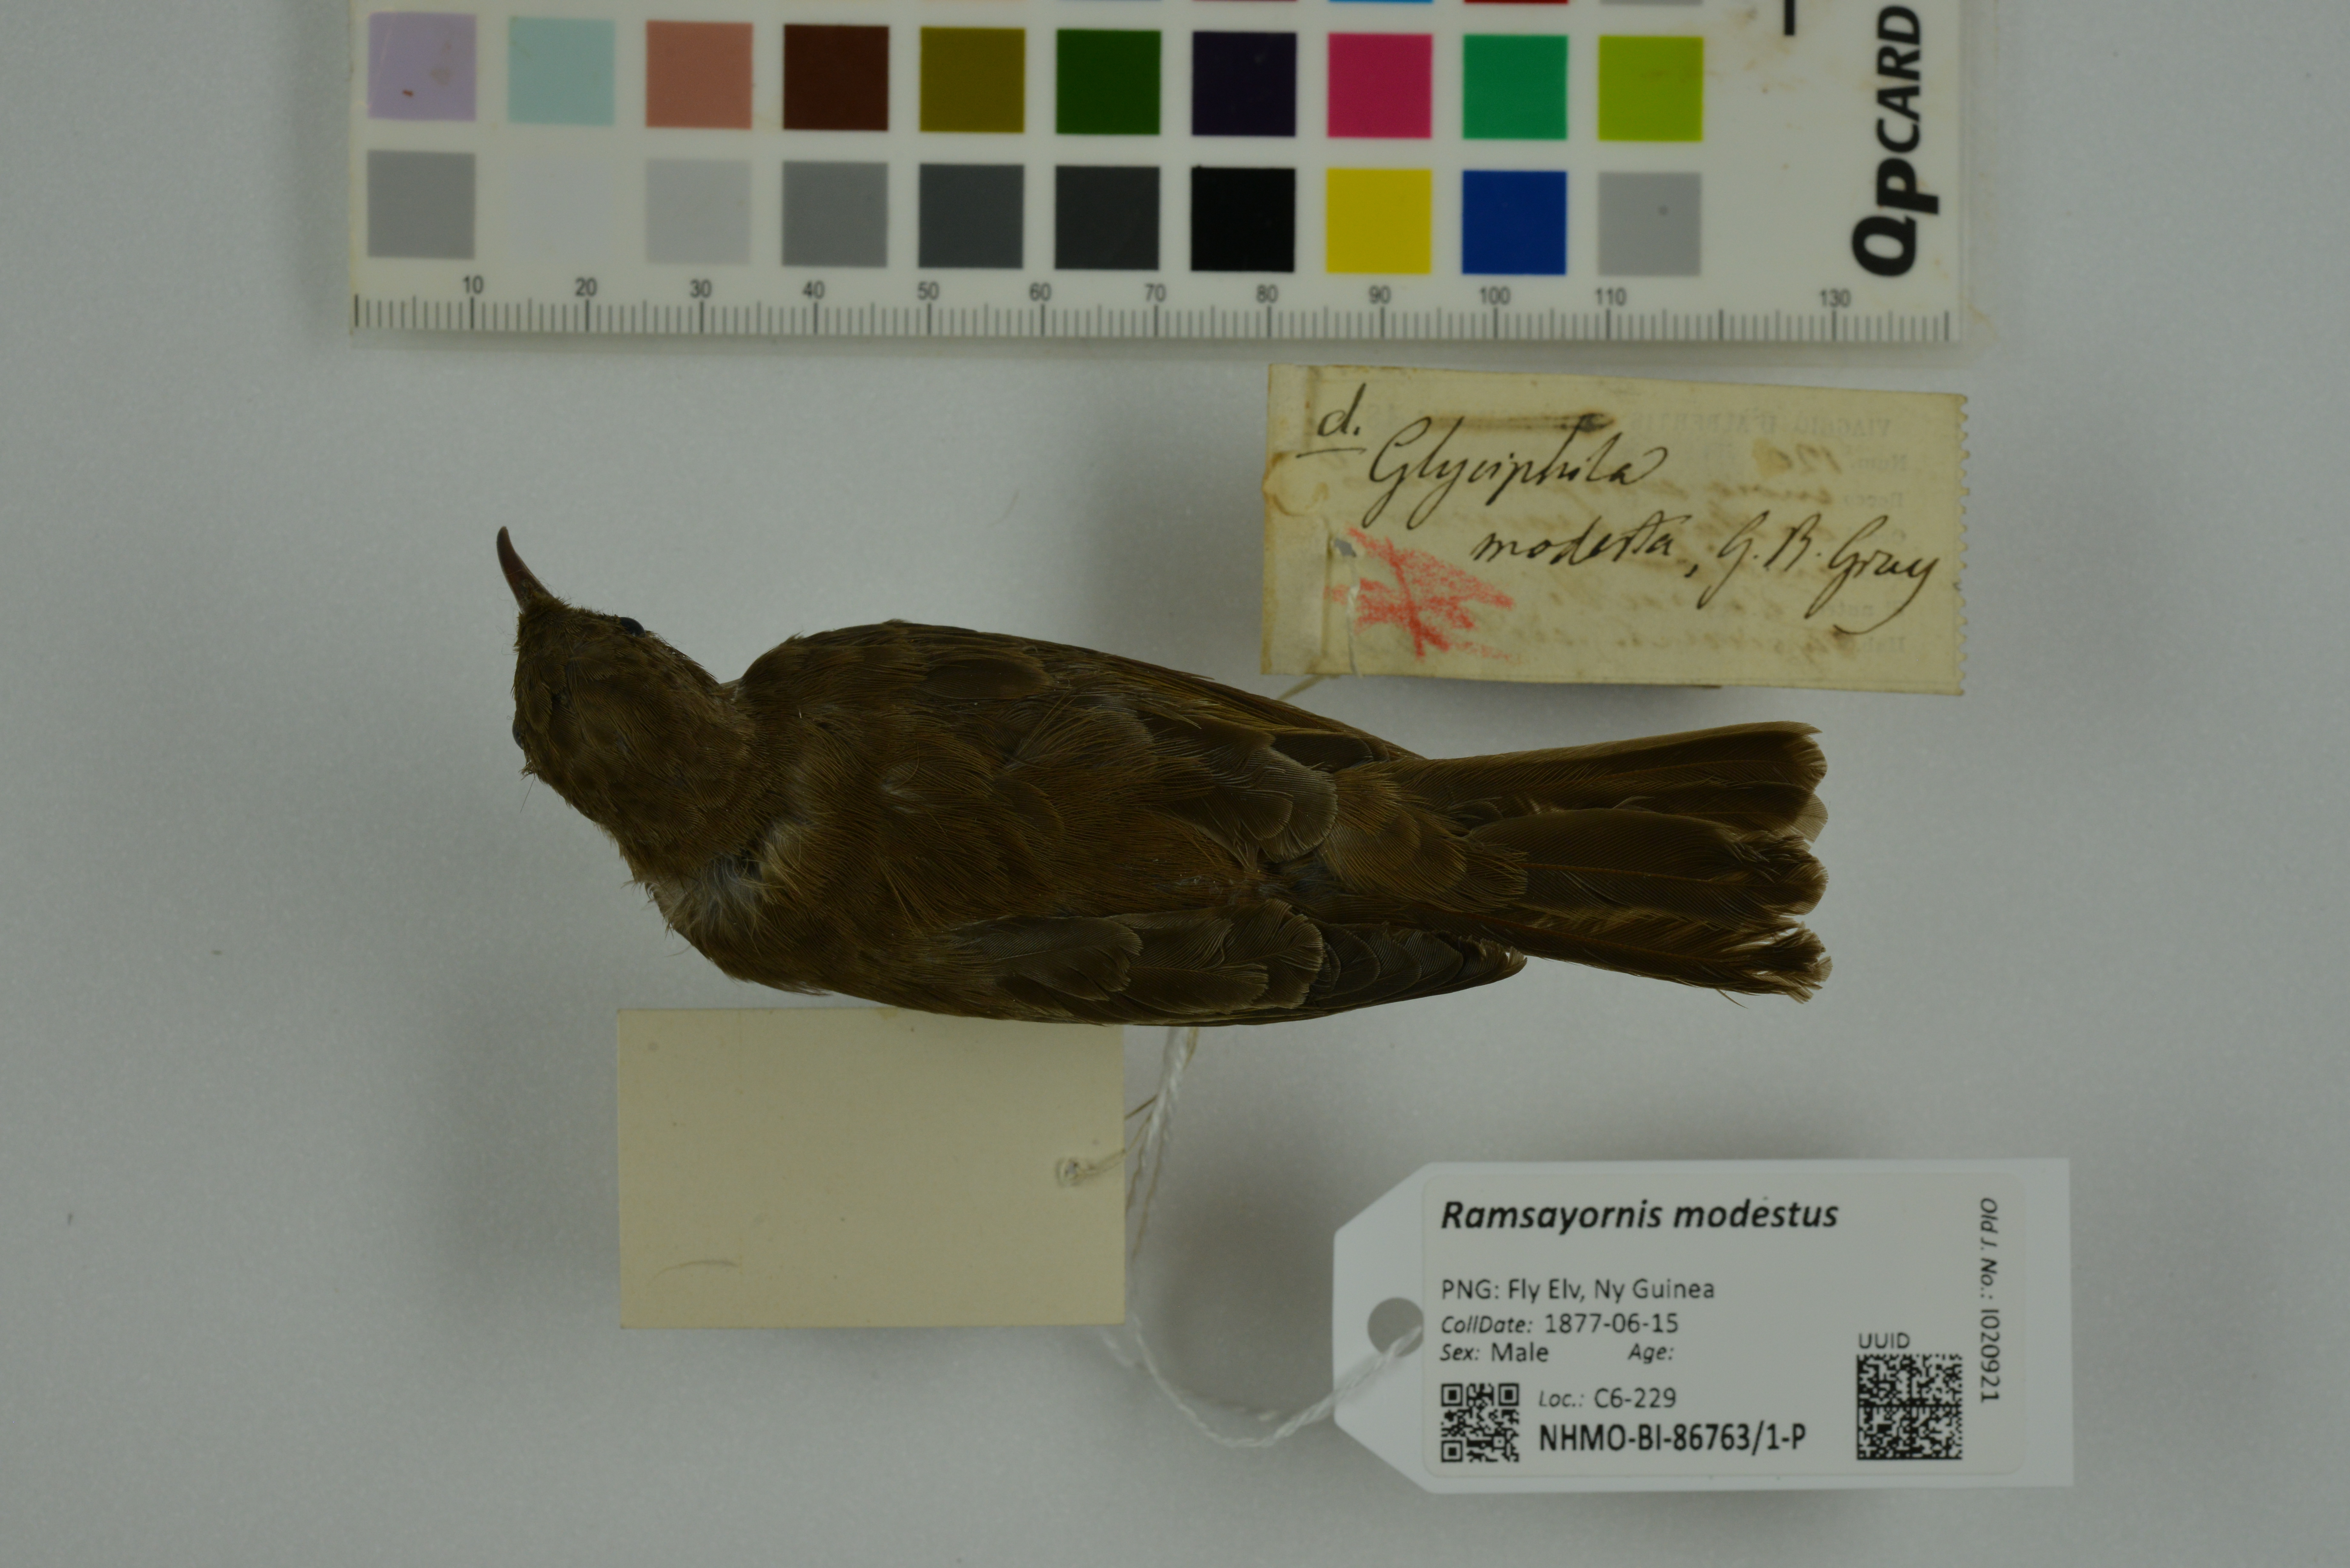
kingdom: Animalia
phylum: Chordata
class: Aves
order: Passeriformes
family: Meliphagidae
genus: Ramsayornis
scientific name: Ramsayornis modestus
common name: Brown-backed honeyeater
